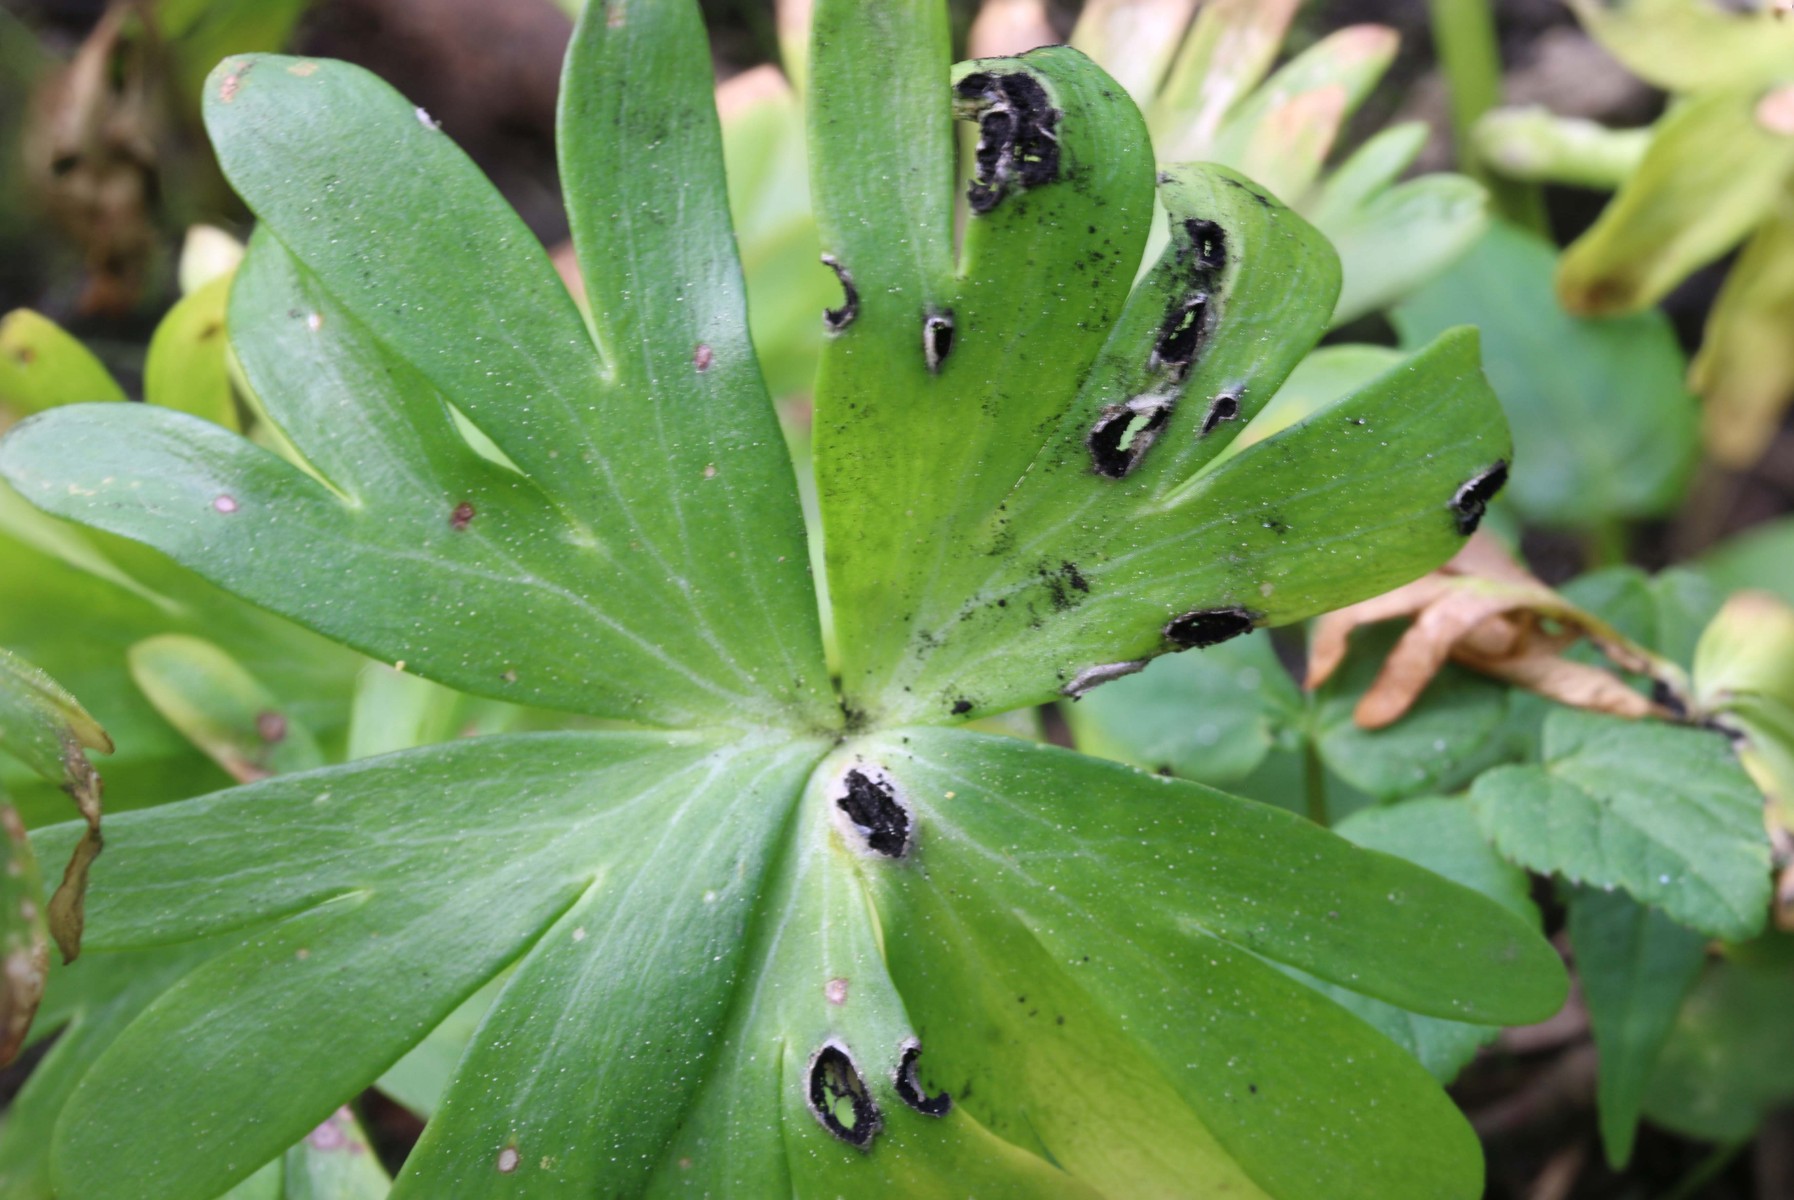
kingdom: Fungi
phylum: Basidiomycota
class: Ustilaginomycetes
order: Urocystidales
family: Urocystidaceae
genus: Urocystis
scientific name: Urocystis eranthidis
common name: erantis-brand
